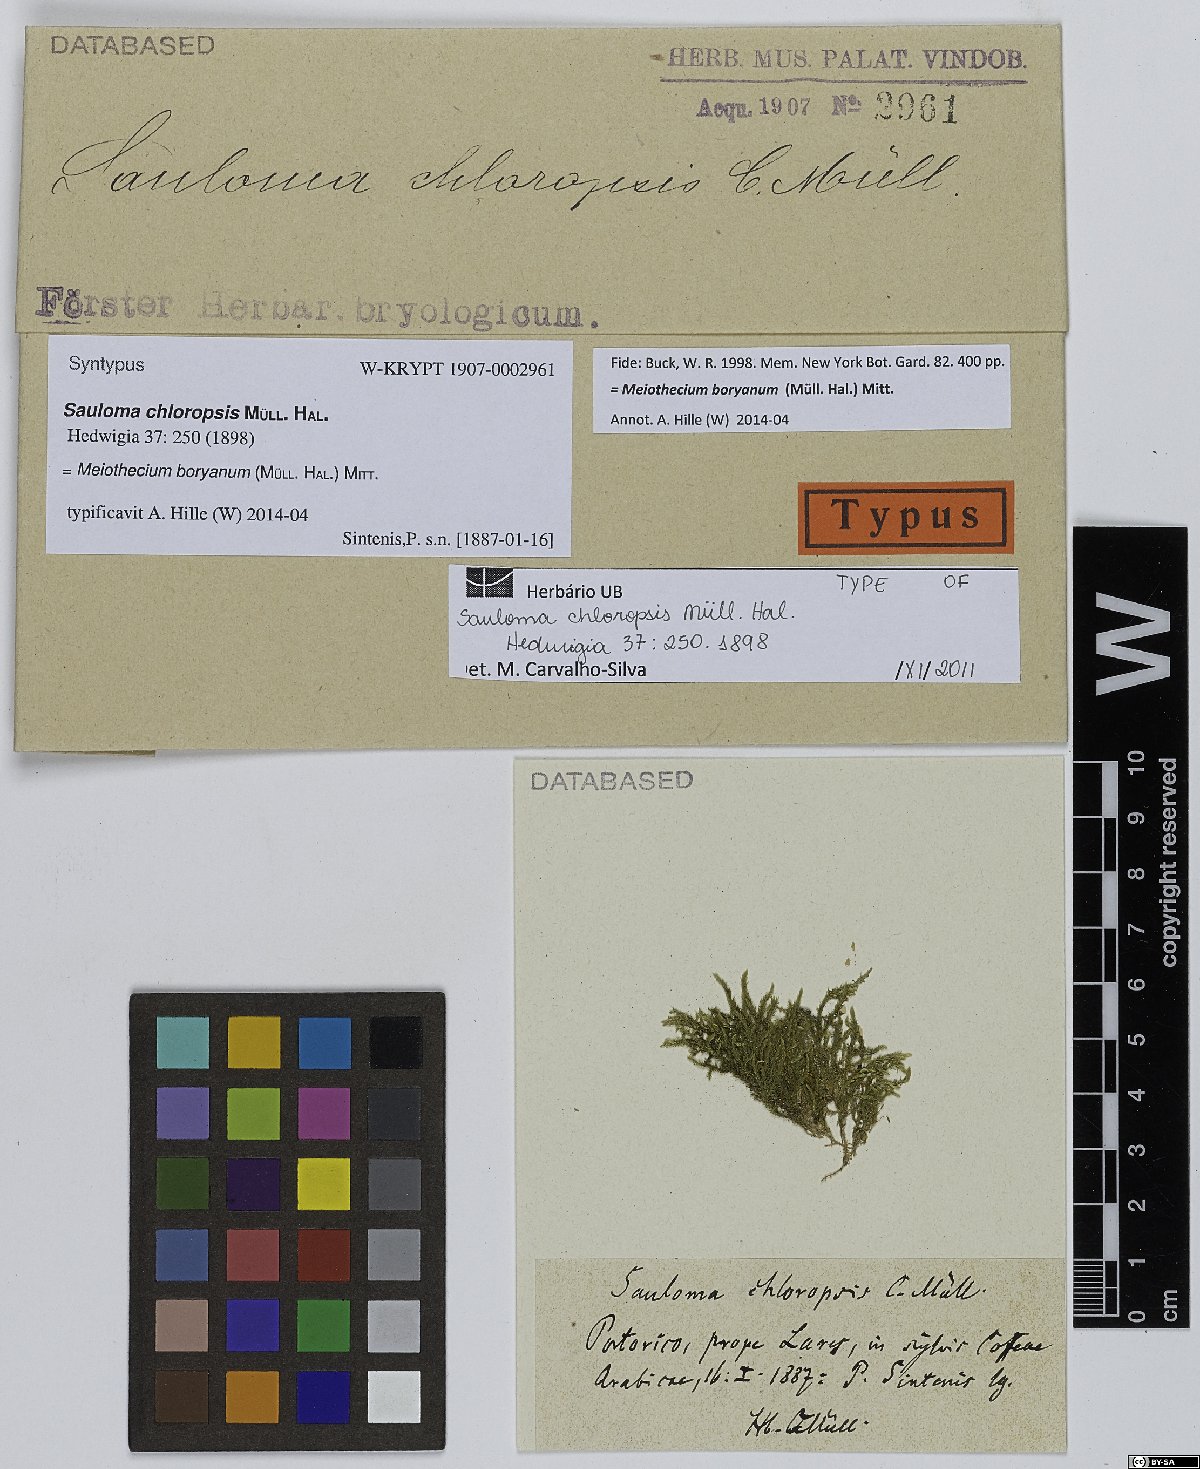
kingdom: Plantae
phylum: Bryophyta
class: Bryopsida
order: Hypnales
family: Sematophyllaceae
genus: Meiothecium
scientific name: Meiothecium boryanum
